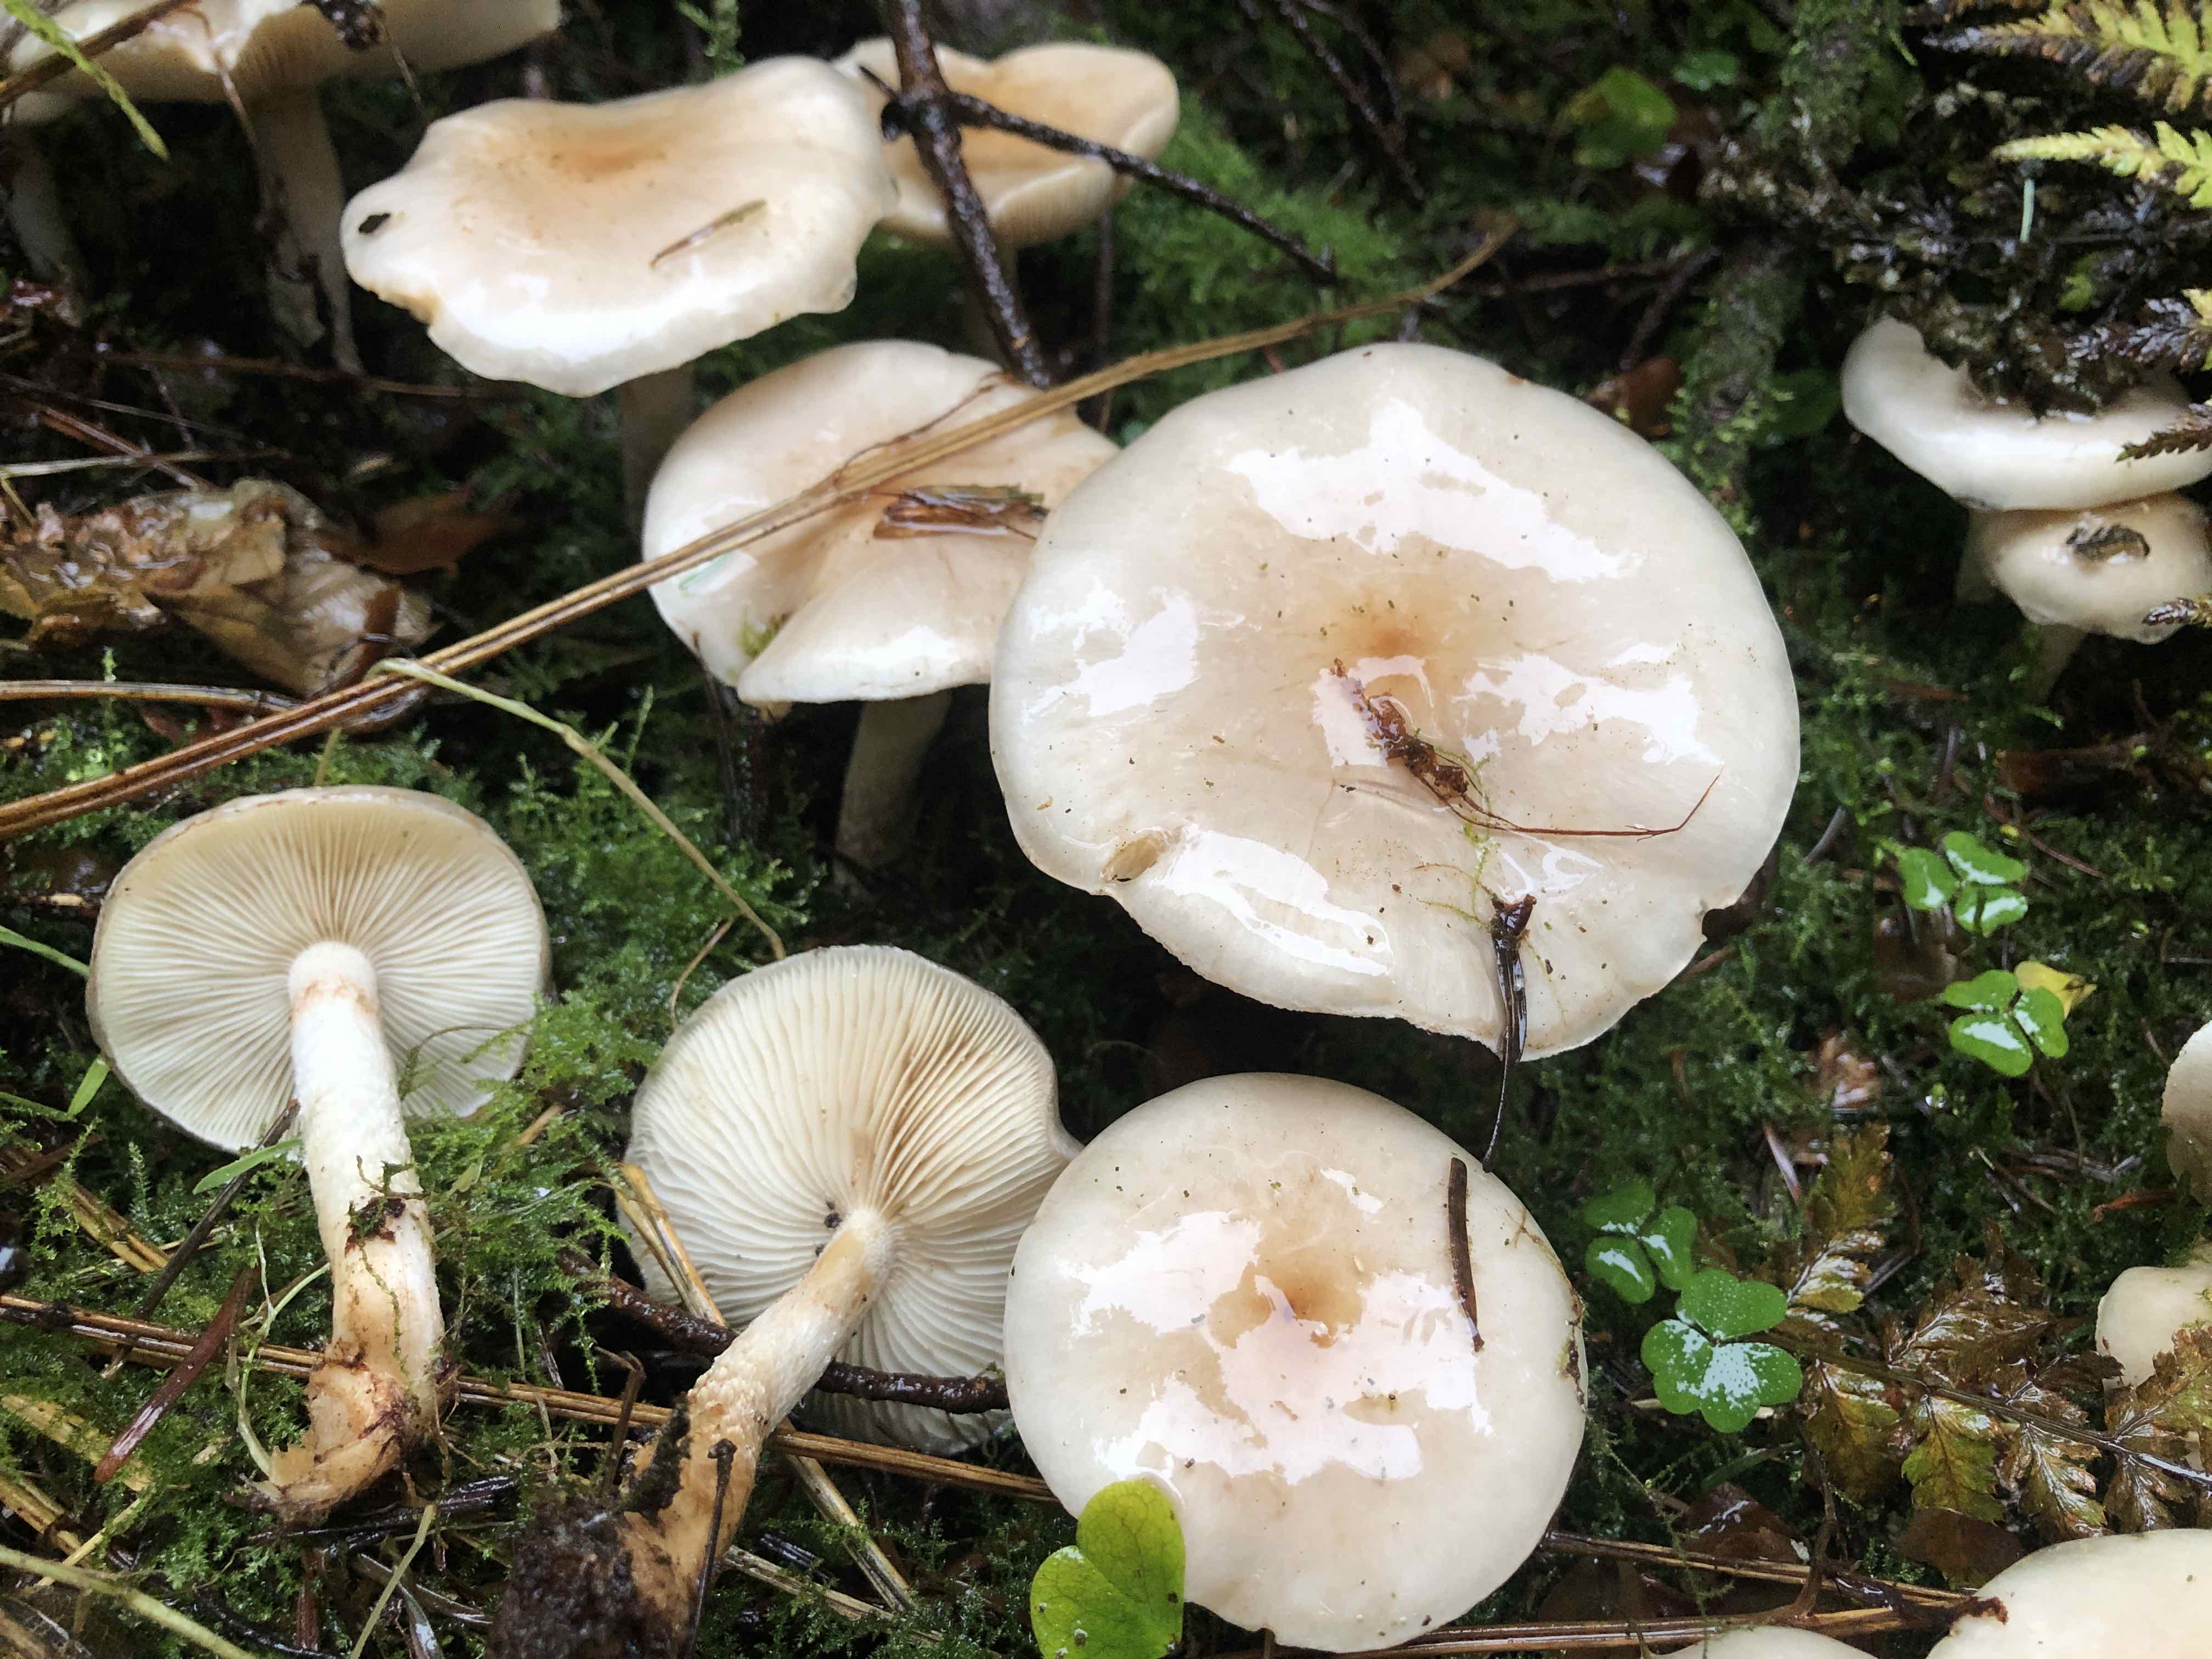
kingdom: Fungi
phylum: Basidiomycota
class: Agaricomycetes
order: Agaricales
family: Strophariaceae
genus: Pholiota
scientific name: Pholiota lenta
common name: løv-skælhat
